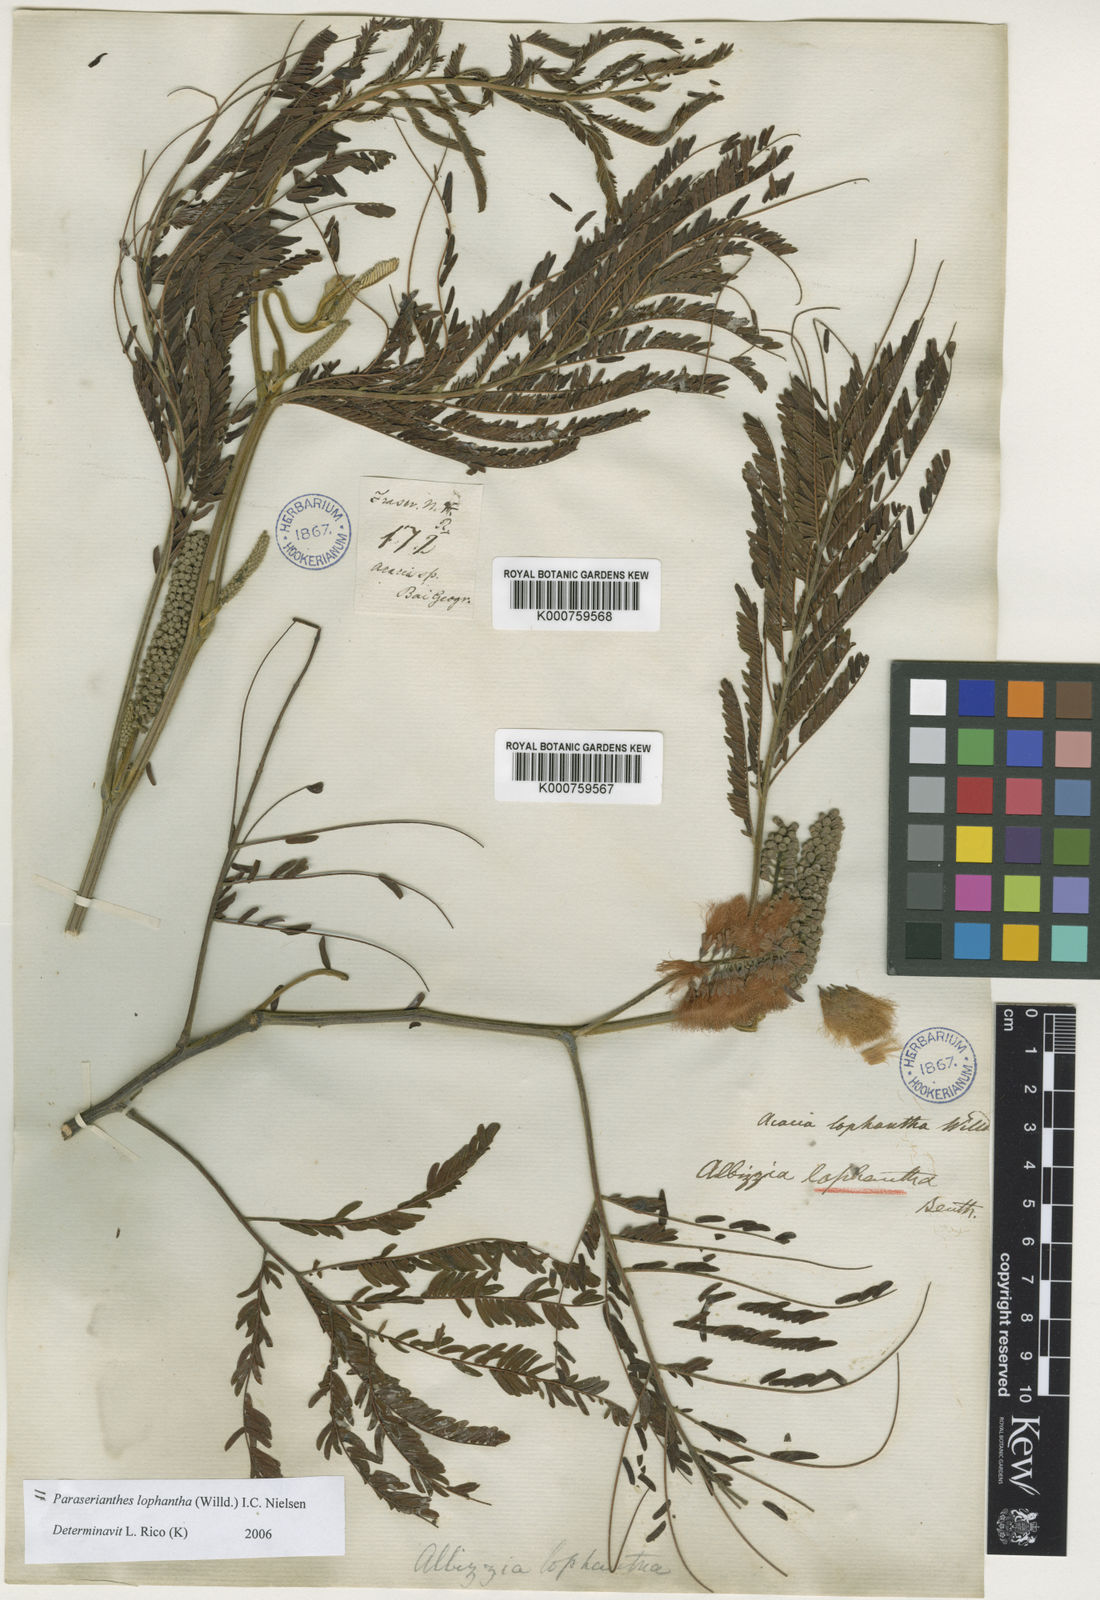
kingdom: Plantae
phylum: Tracheophyta
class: Magnoliopsida
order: Fabales
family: Fabaceae
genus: Paraserianthes
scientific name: Paraserianthes lophantha
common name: Plume albizia
